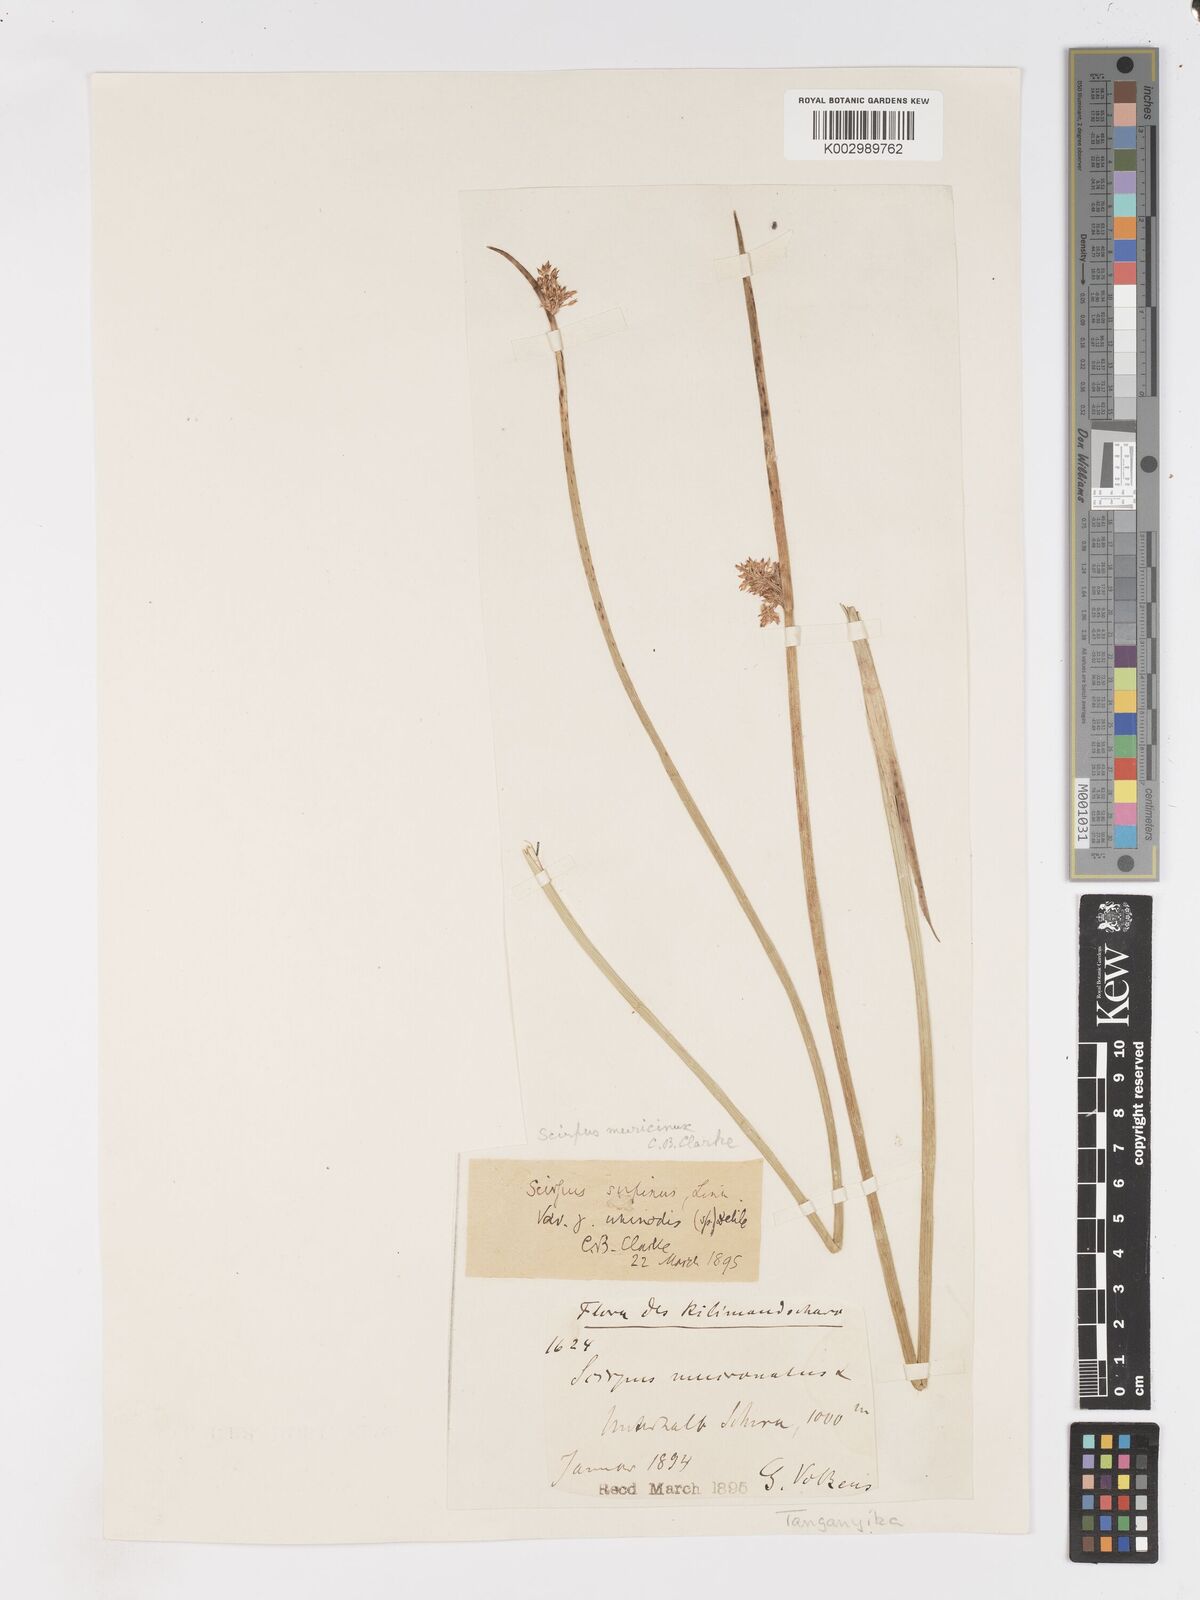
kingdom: Plantae
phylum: Tracheophyta
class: Liliopsida
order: Poales
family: Cyperaceae
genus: Schoenoplectiella
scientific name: Schoenoplectiella confusa
